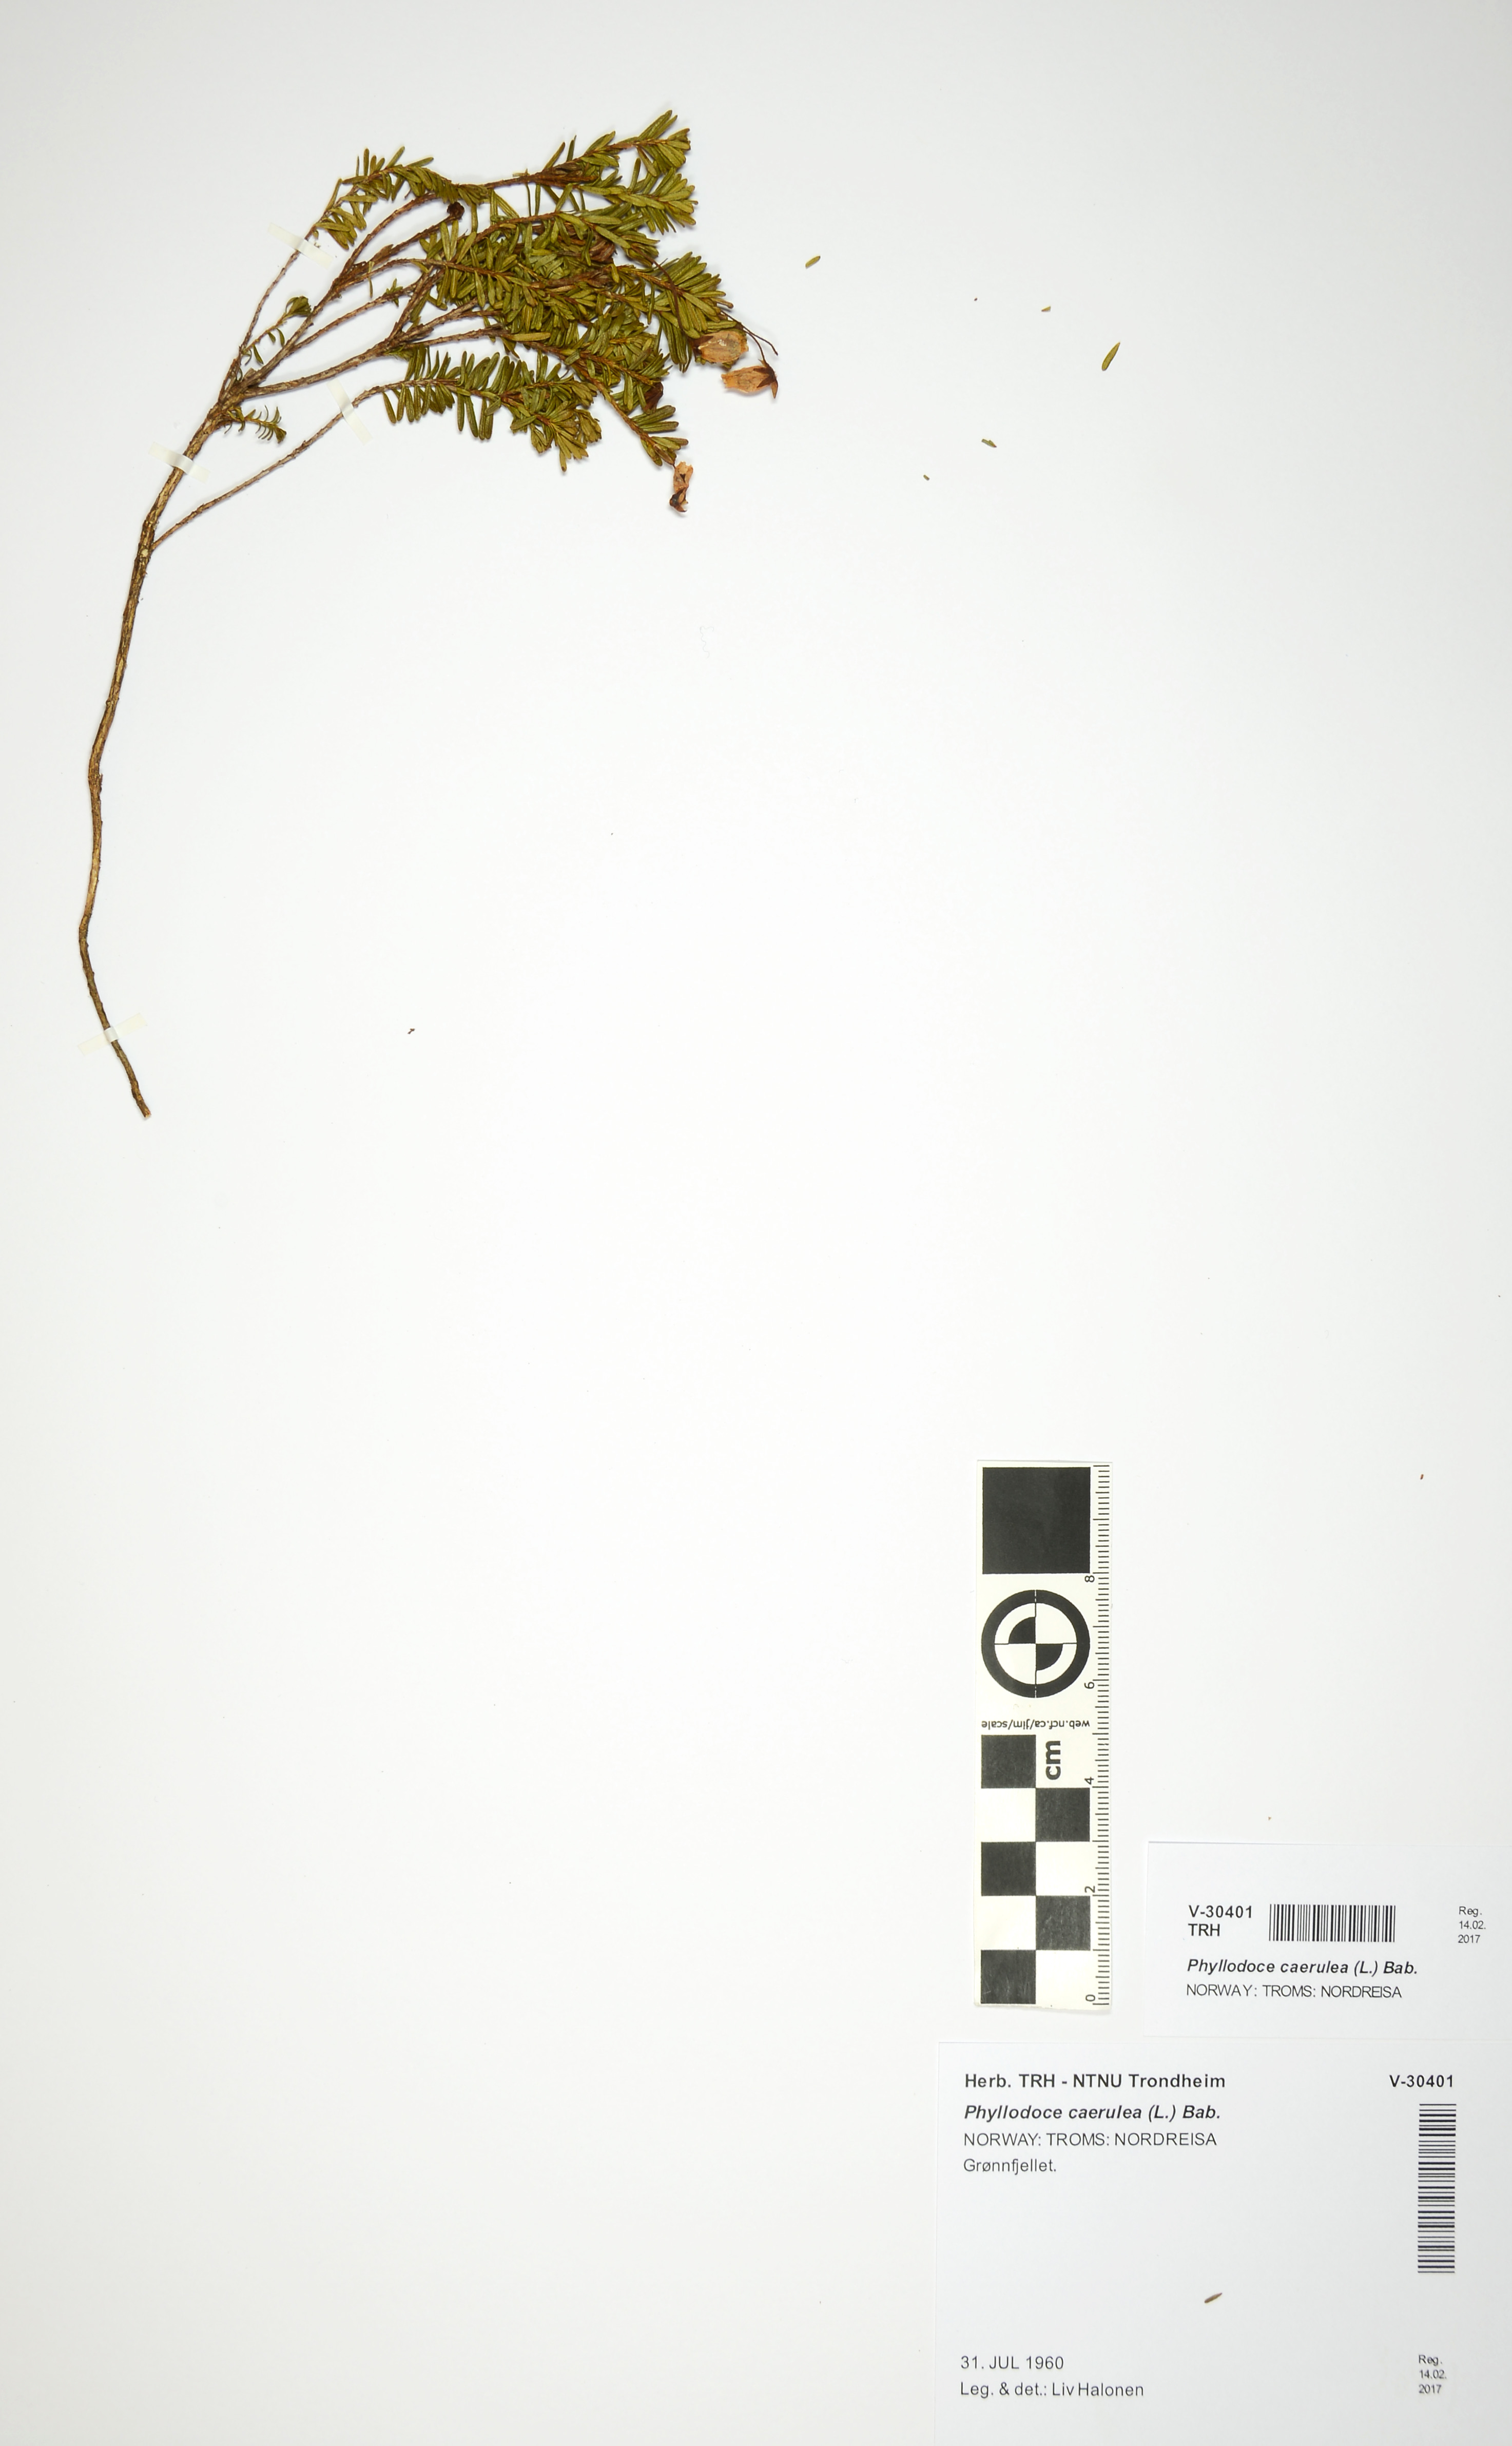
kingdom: Plantae
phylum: Tracheophyta
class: Magnoliopsida
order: Ericales
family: Ericaceae
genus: Phyllodoce
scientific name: Phyllodoce caerulea
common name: Blue heath
